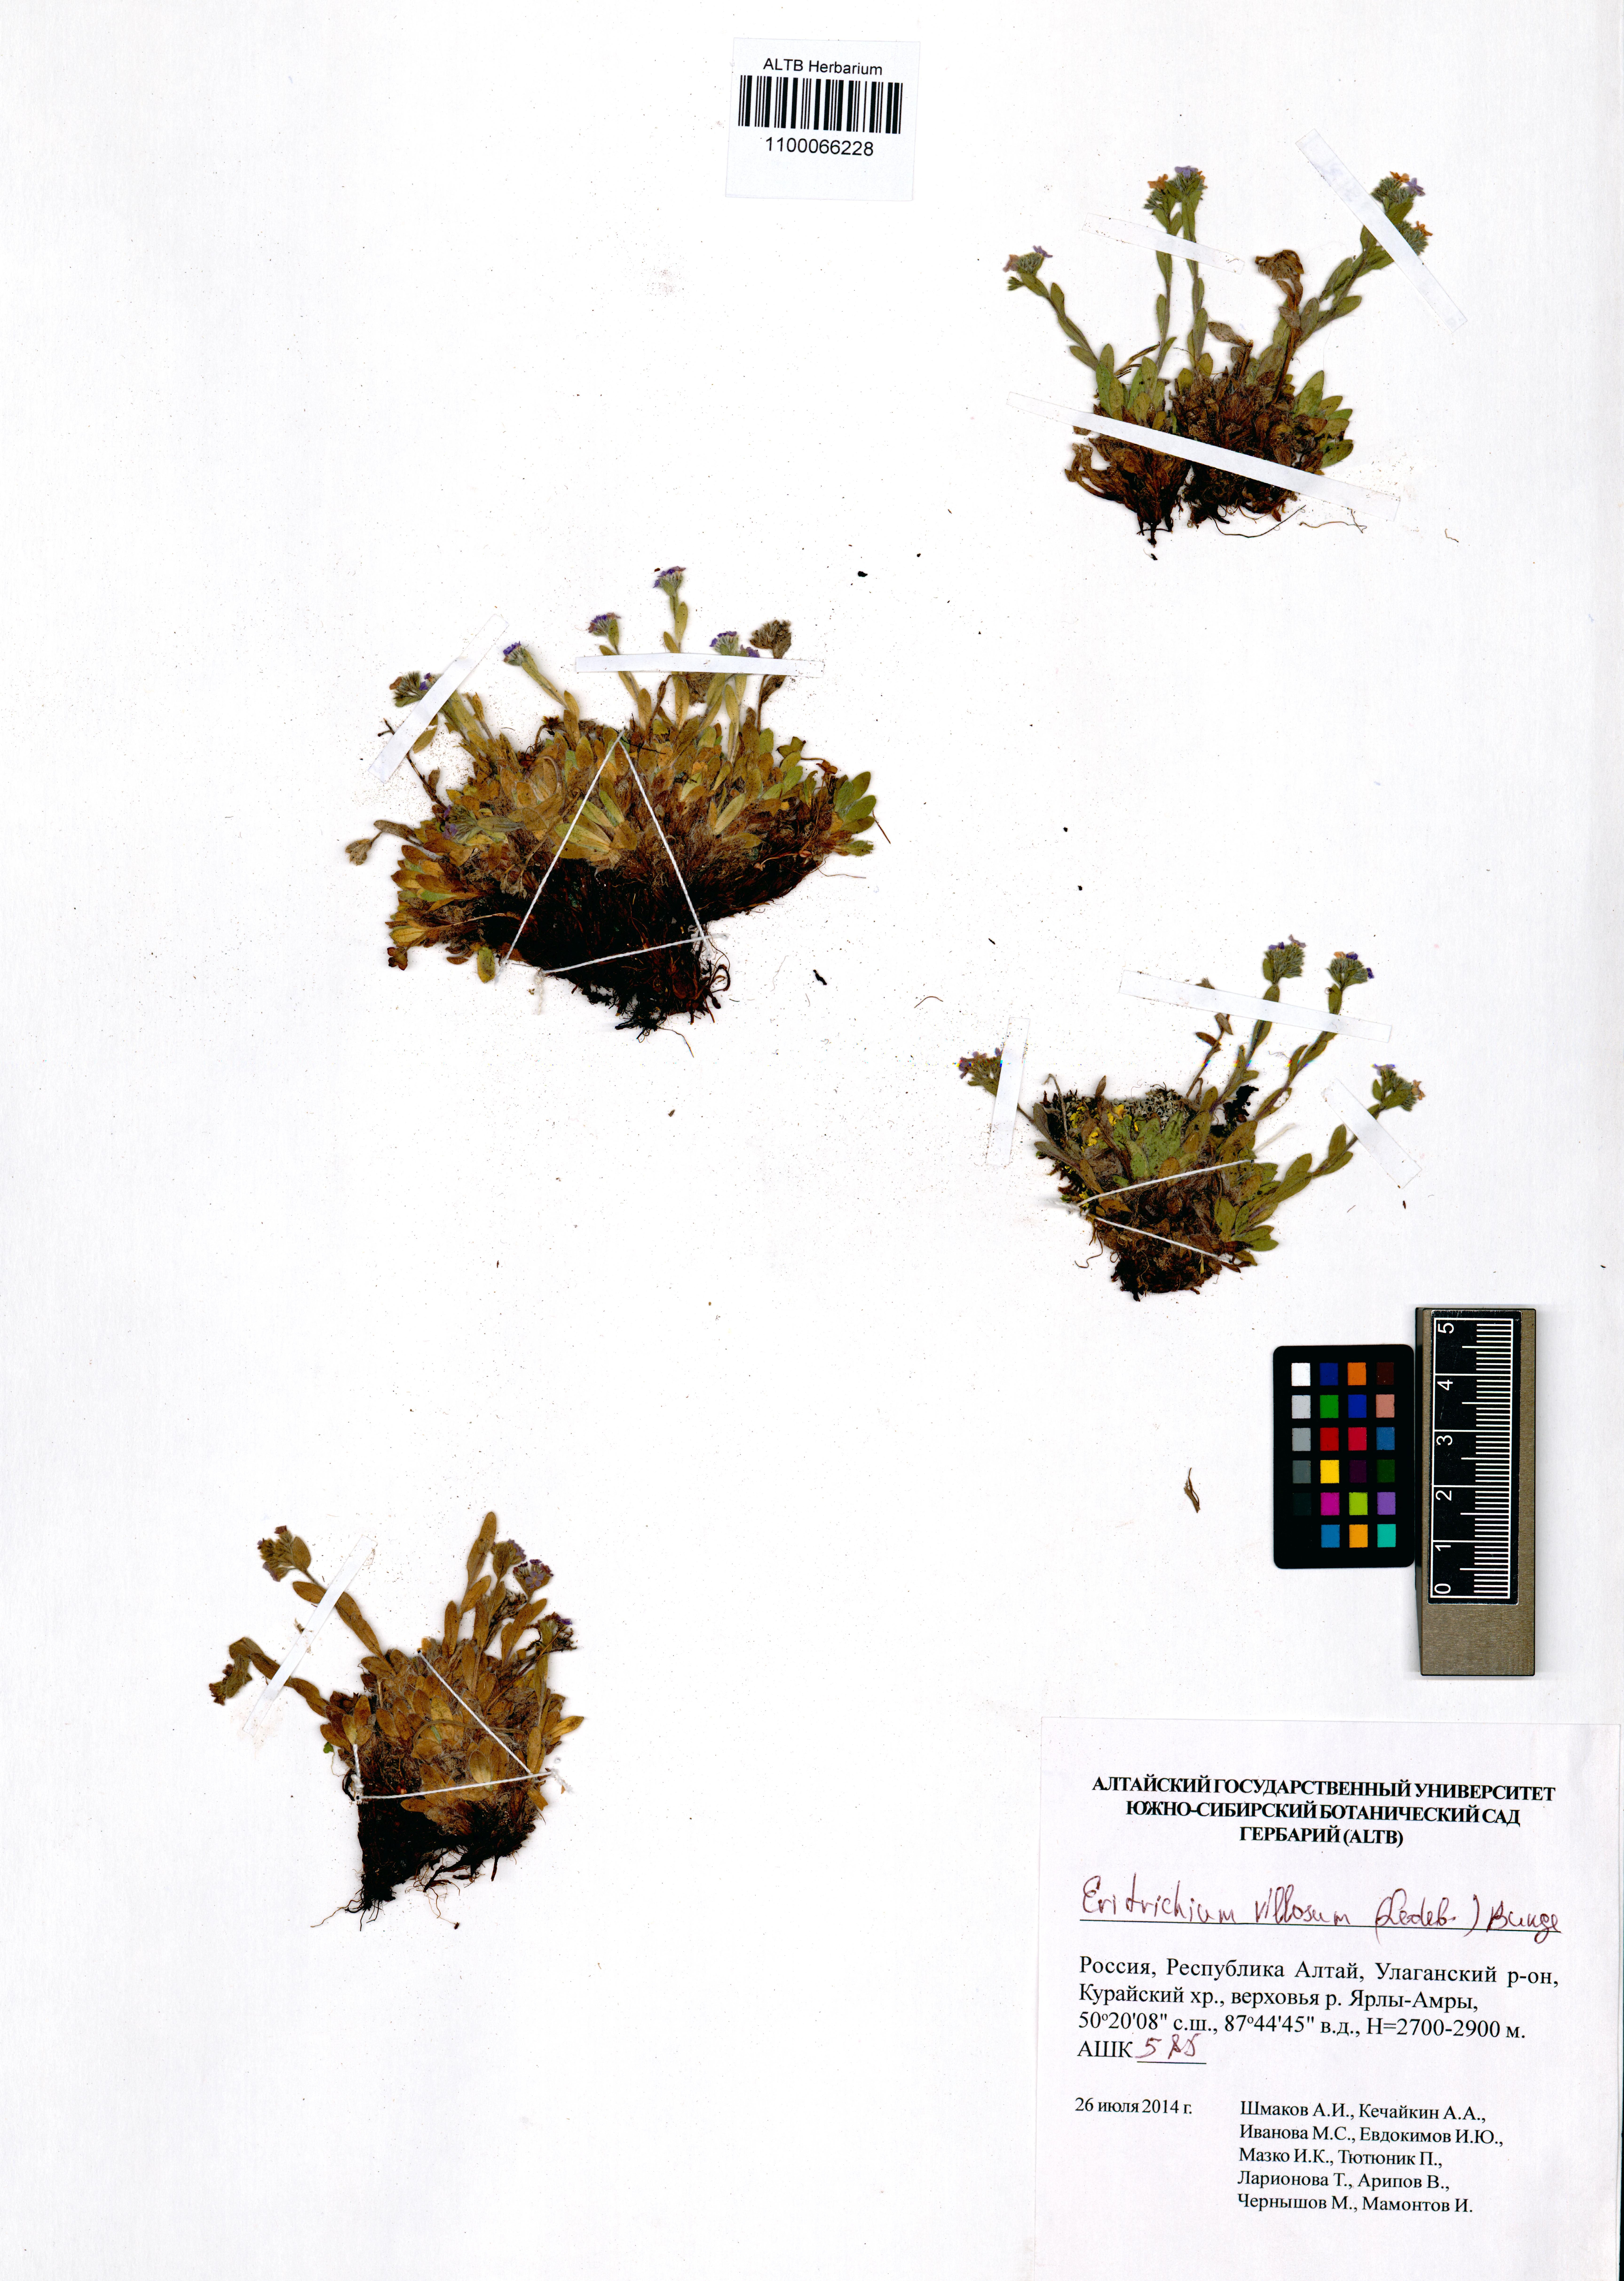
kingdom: Plantae
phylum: Tracheophyta
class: Magnoliopsida
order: Boraginales
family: Boraginaceae
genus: Eritrichium
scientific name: Eritrichium villosum
